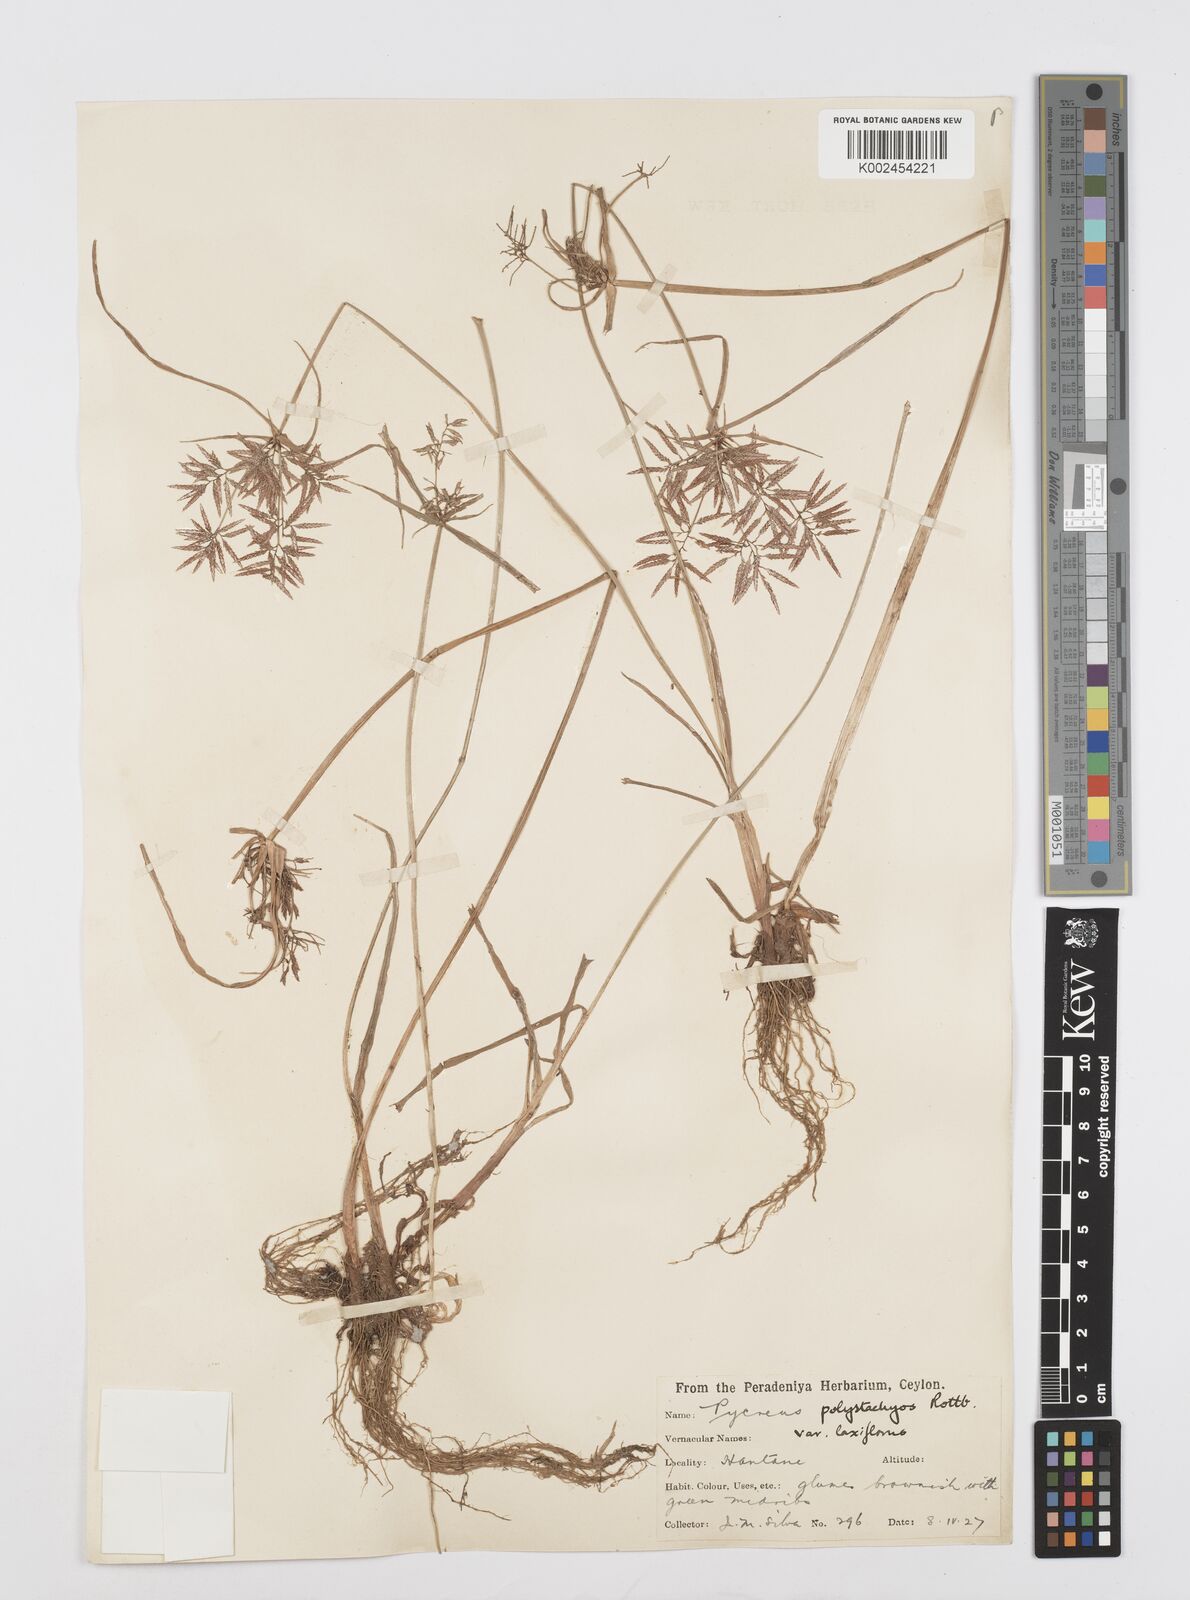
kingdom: Plantae
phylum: Tracheophyta
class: Liliopsida
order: Poales
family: Cyperaceae
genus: Cyperus
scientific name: Cyperus polystachyos
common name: Bunchy flat sedge
